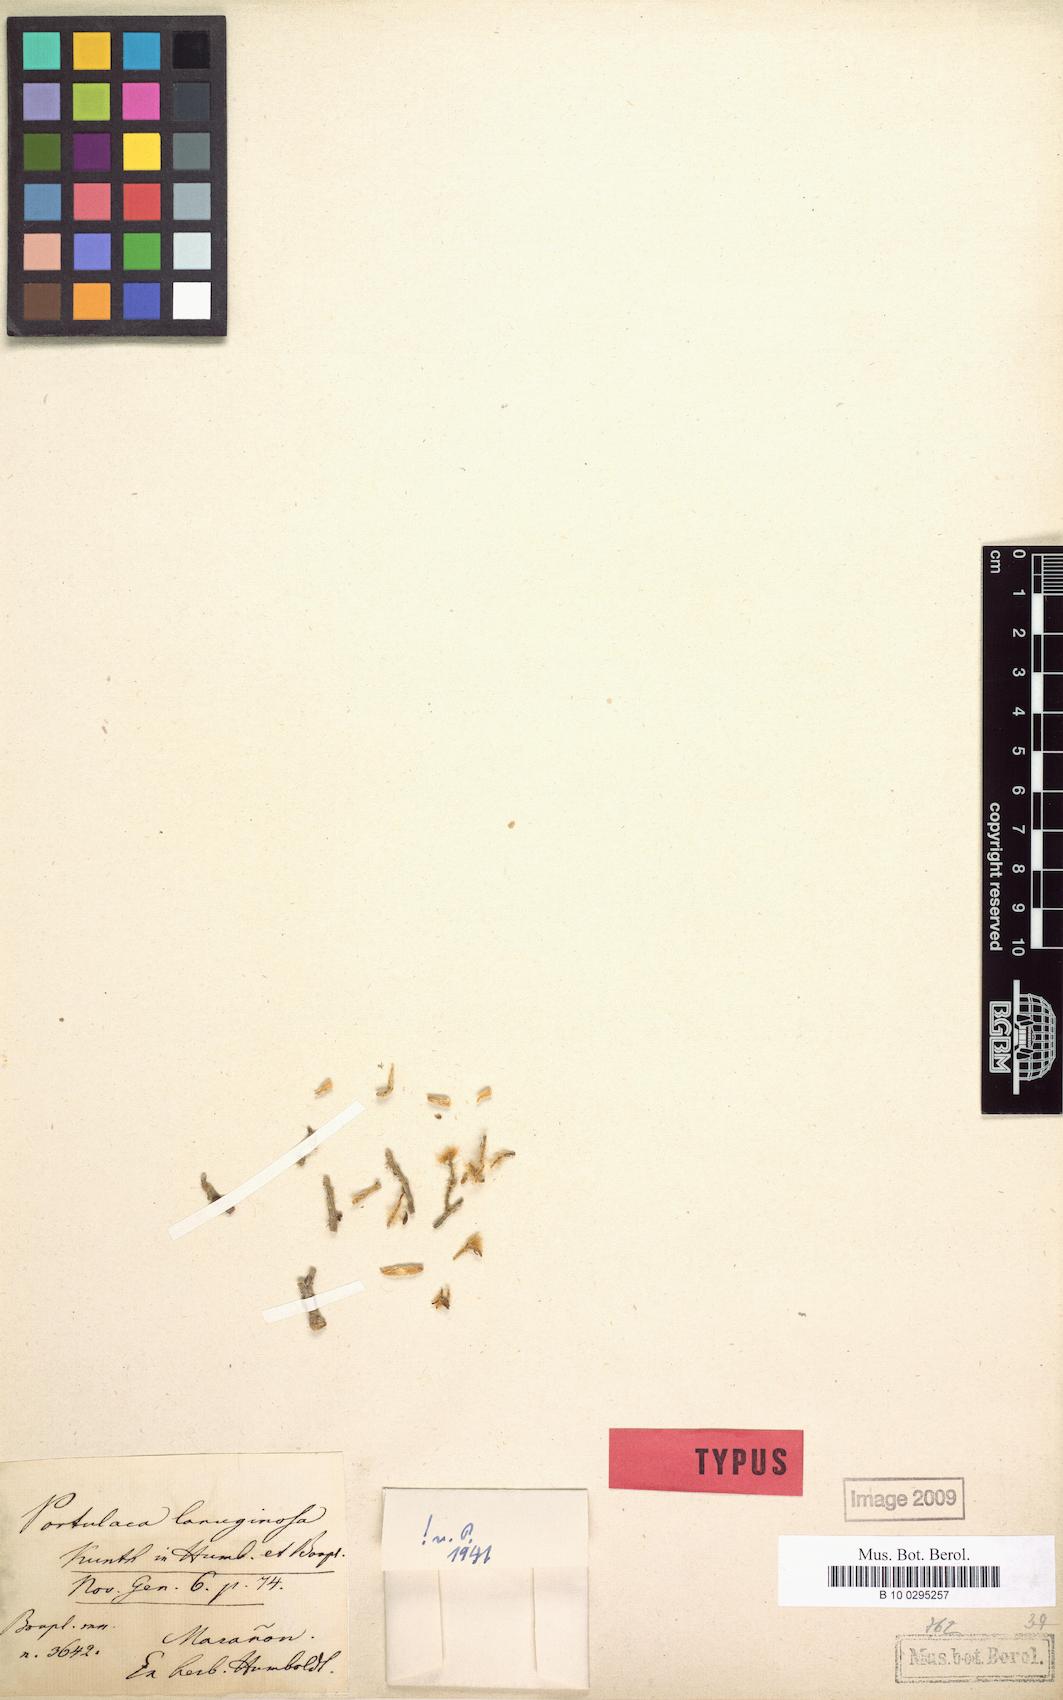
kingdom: Plantae
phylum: Tracheophyta
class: Magnoliopsida
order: Caryophyllales
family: Portulacaceae
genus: Portulaca
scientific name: Portulaca lanuginosa
